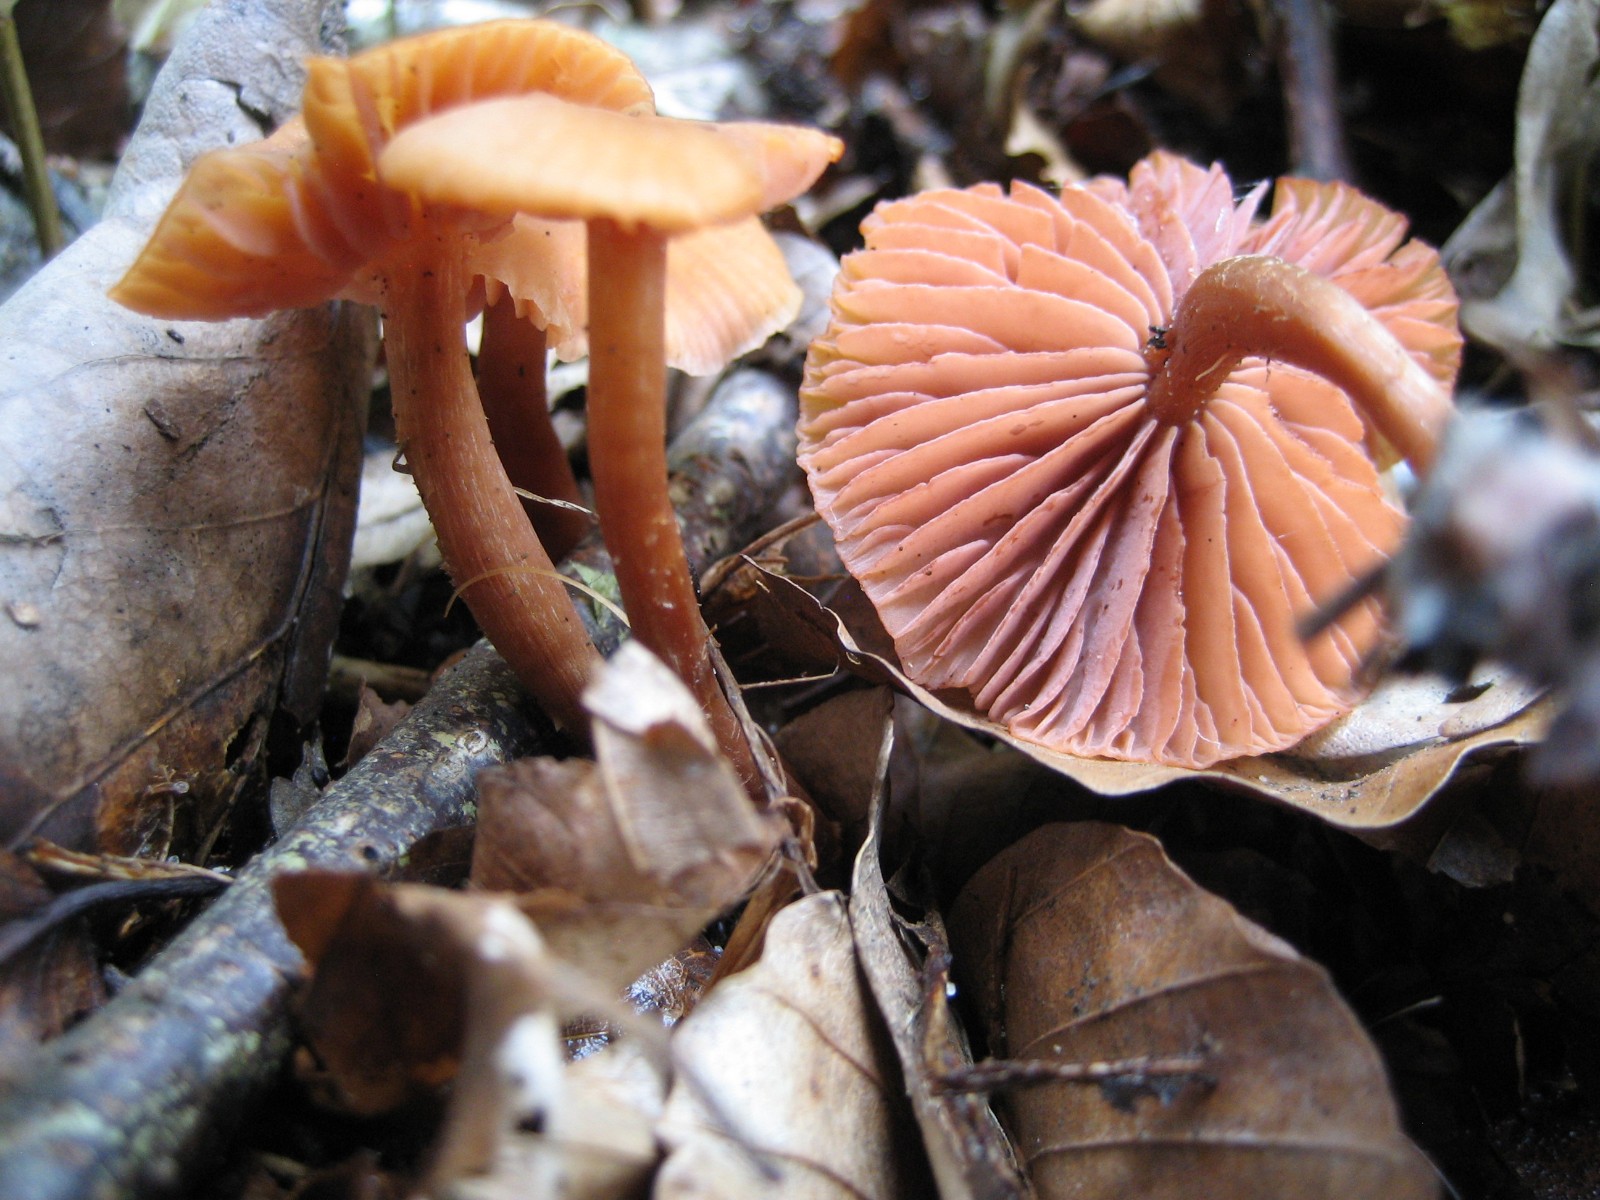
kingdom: Fungi
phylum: Basidiomycota
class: Agaricomycetes
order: Agaricales
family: Hydnangiaceae
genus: Laccaria
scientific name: Laccaria laccata
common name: rød ametysthat
